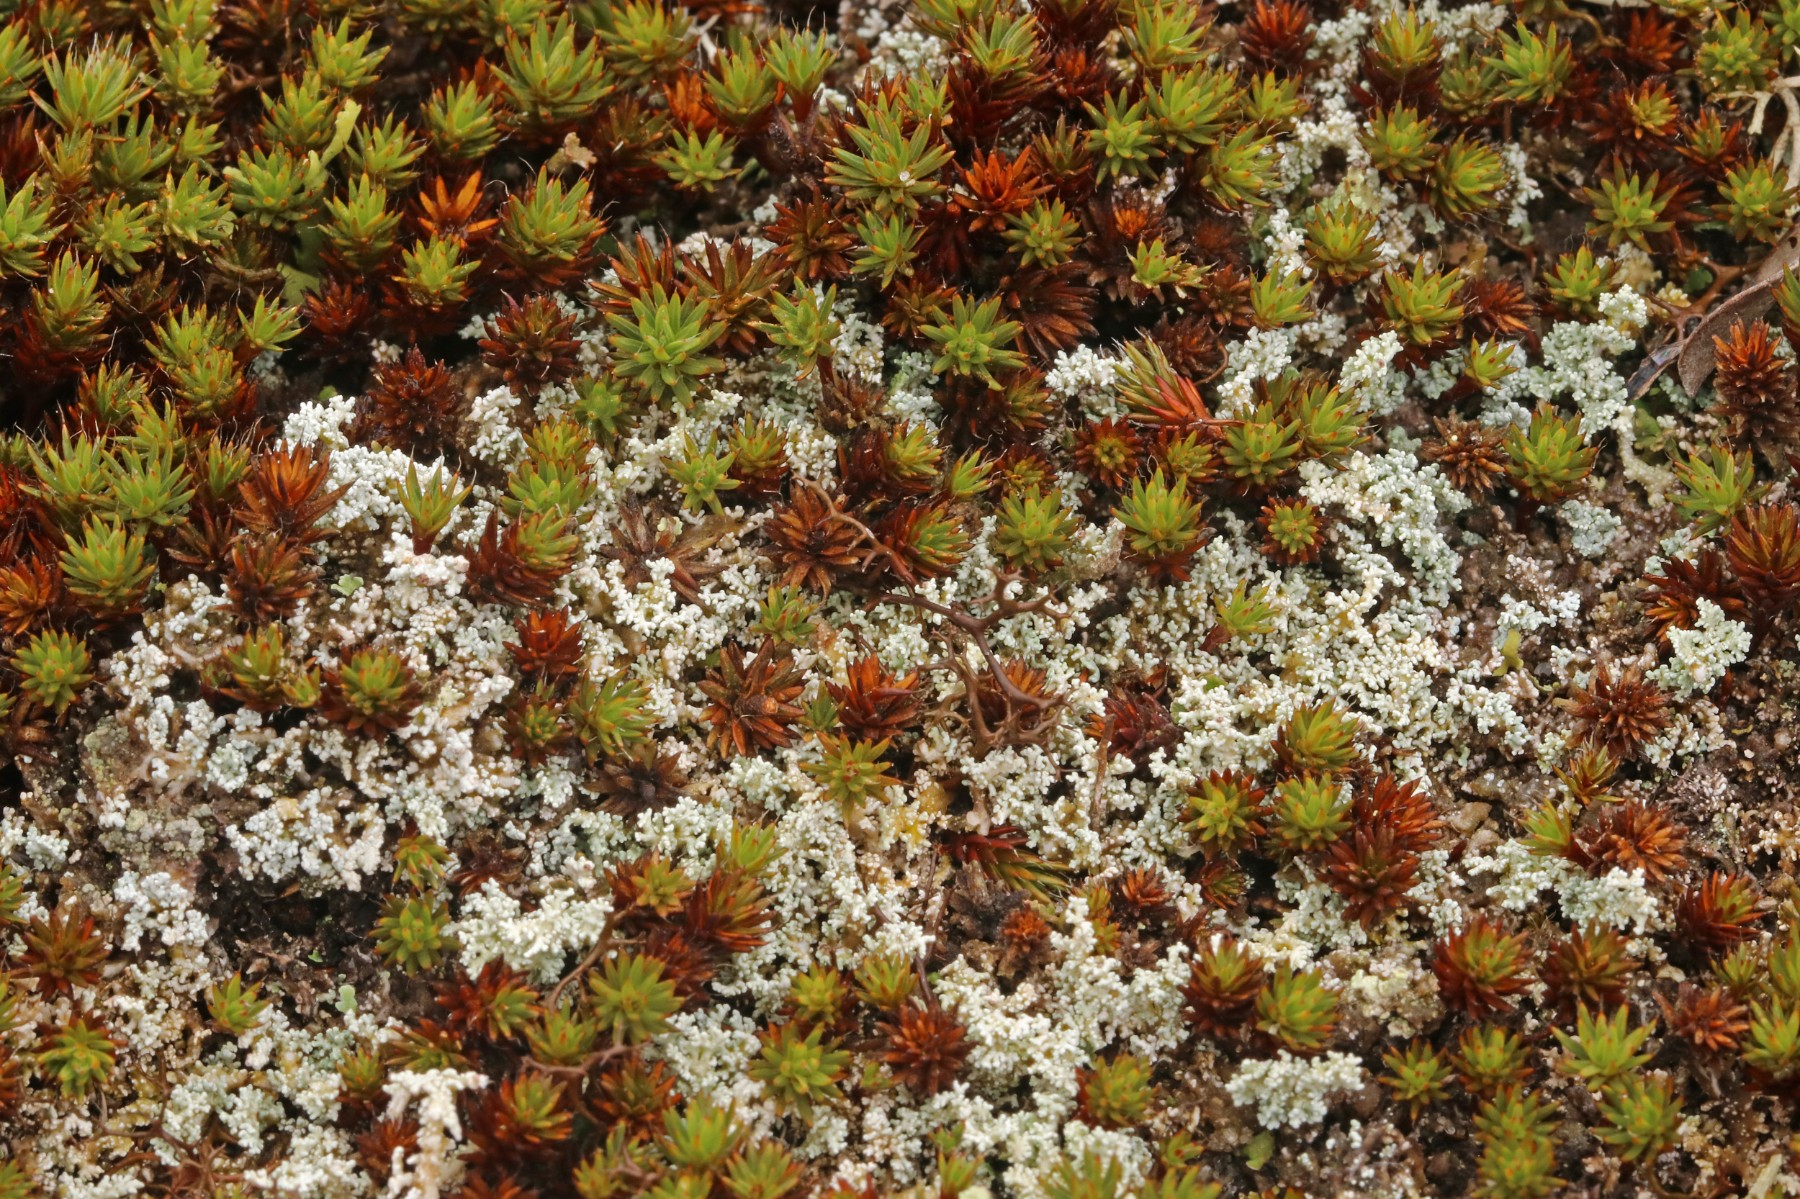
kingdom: Fungi
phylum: Ascomycota
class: Lecanoromycetes
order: Lecanorales
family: Stereocaulaceae
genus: Stereocaulon
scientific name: Stereocaulon saxatile
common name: klit-korallav
